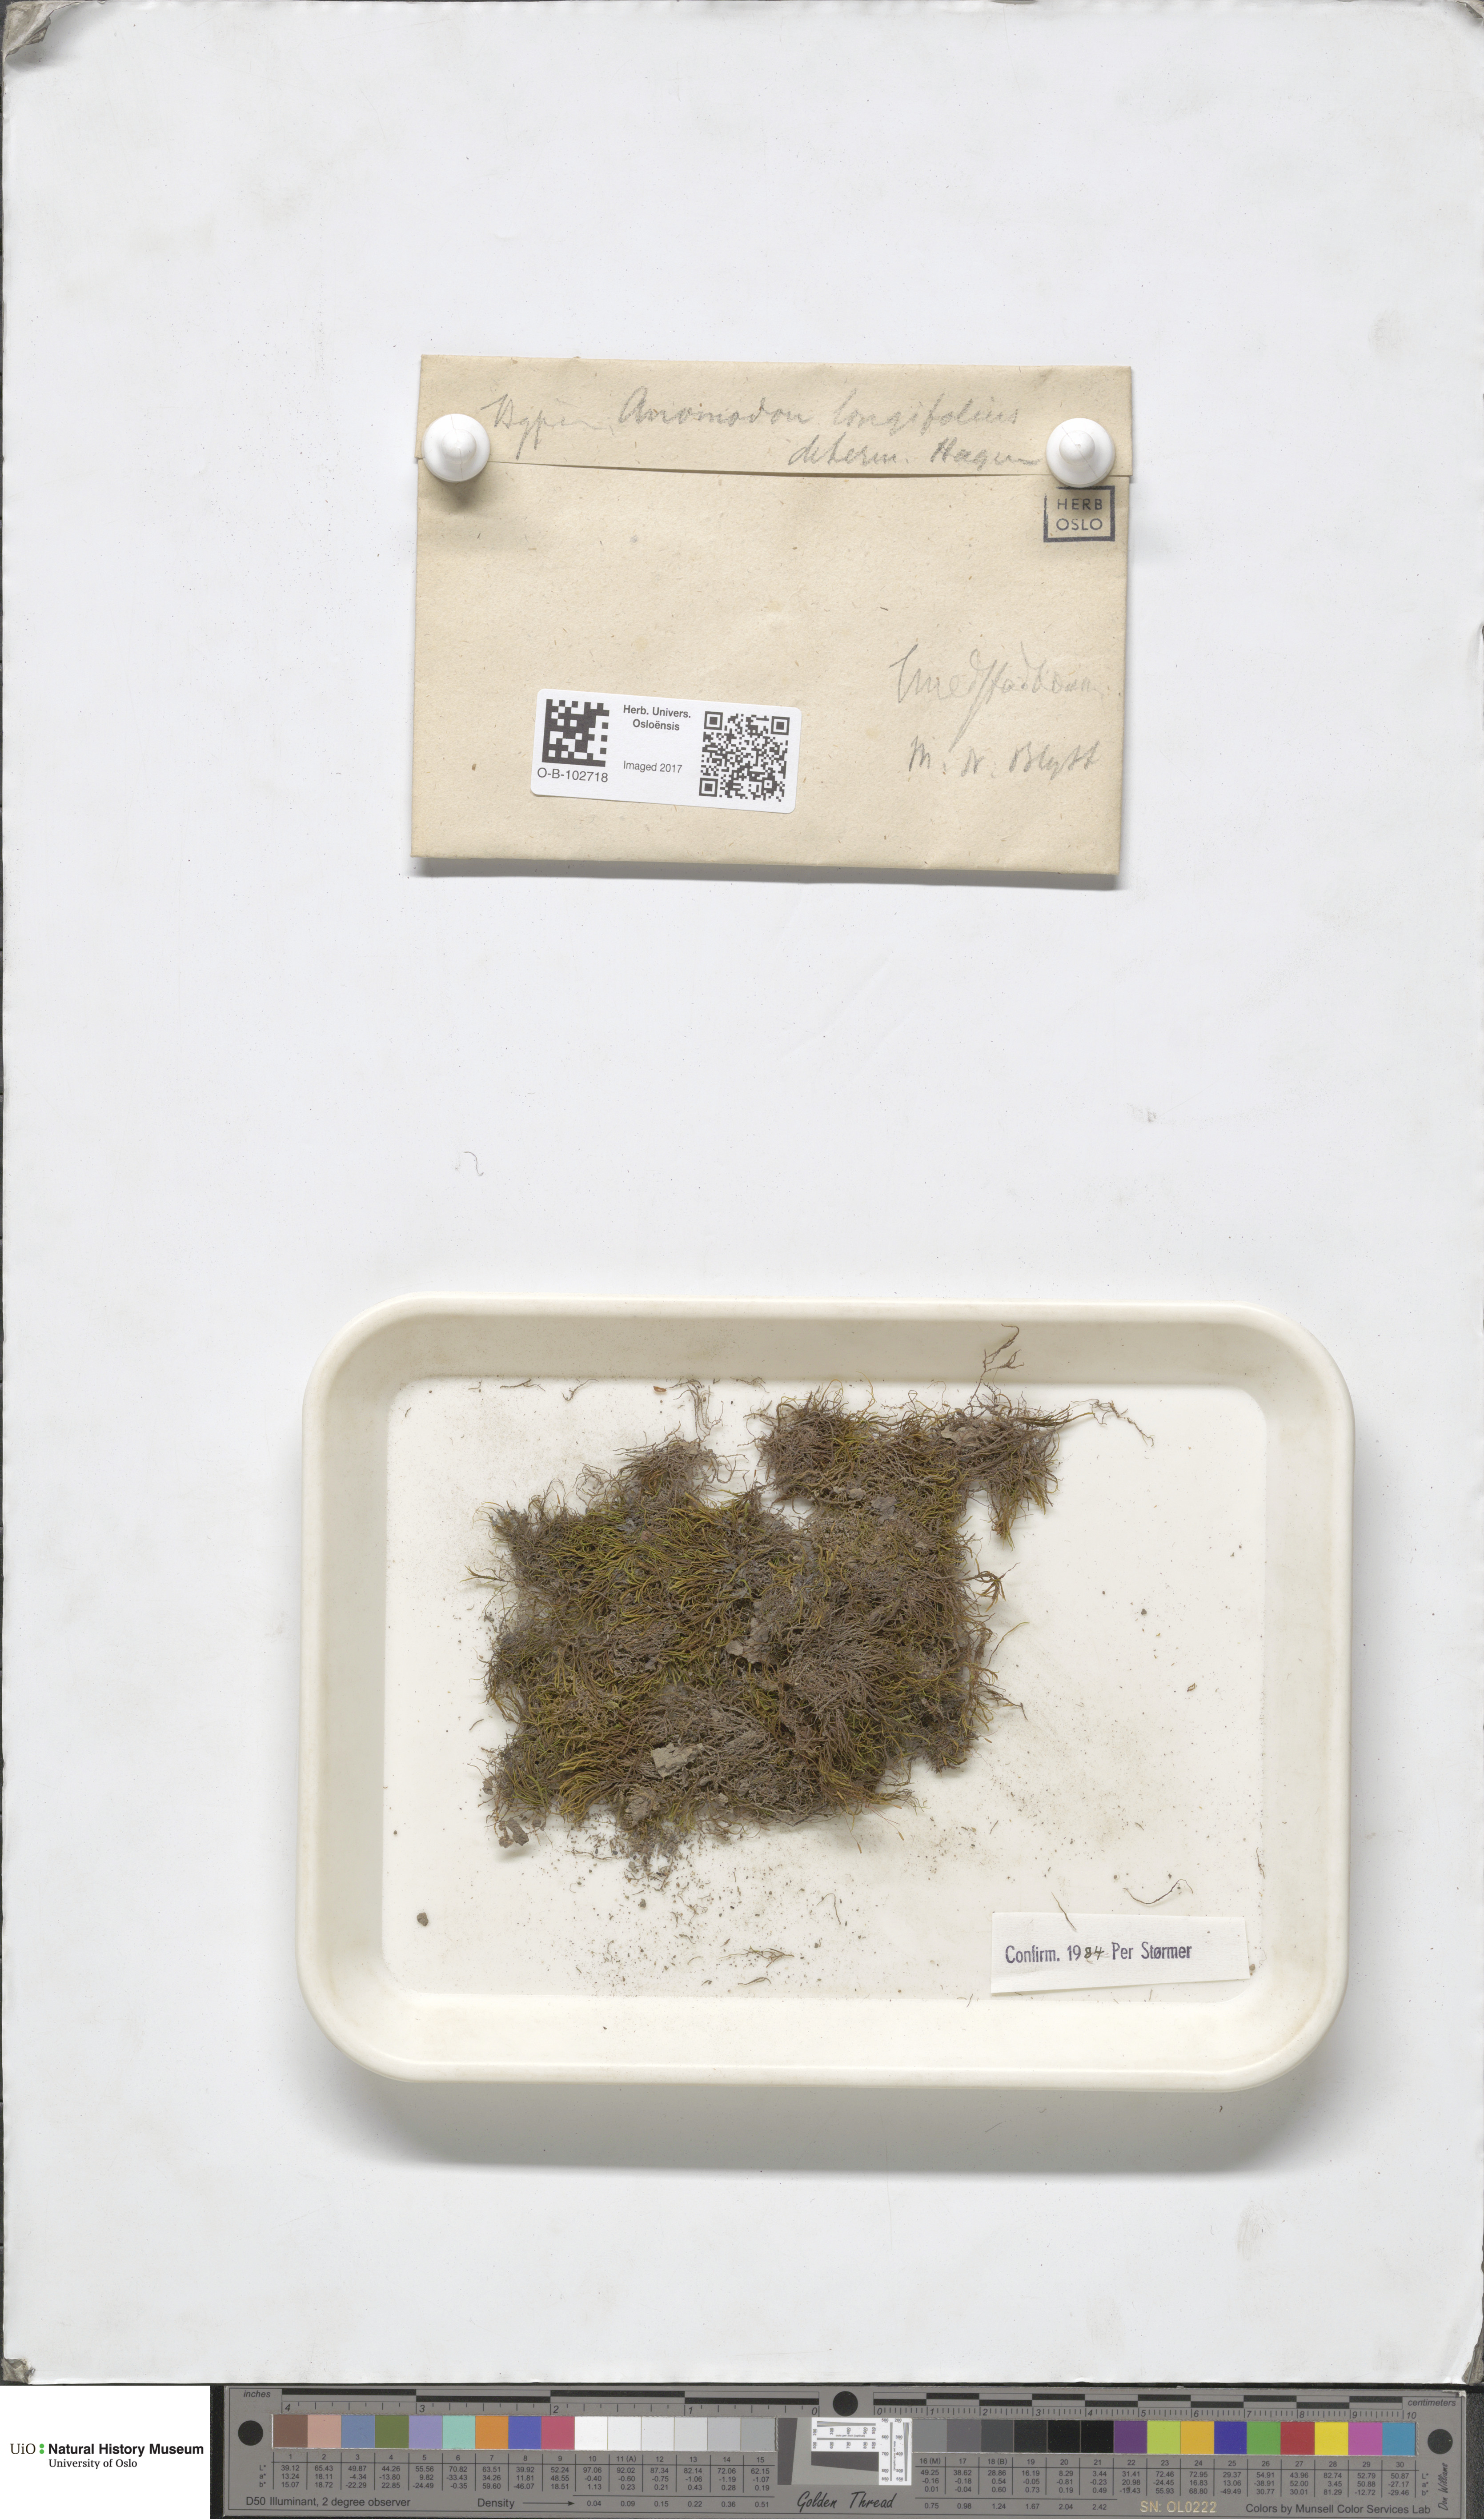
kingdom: Plantae
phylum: Bryophyta
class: Bryopsida
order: Hypnales
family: Anomodontaceae
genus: Anomodontella
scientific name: Anomodontella longifolia
